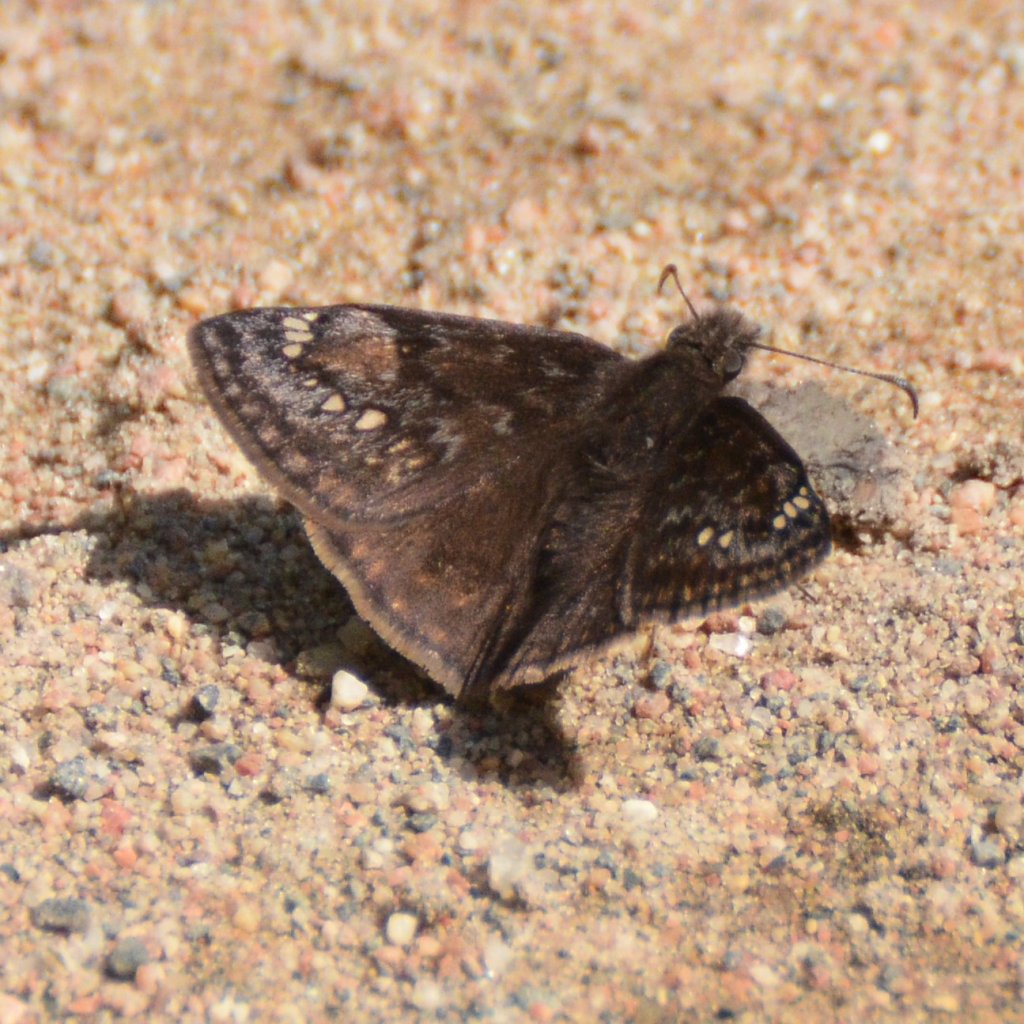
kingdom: Animalia
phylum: Arthropoda
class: Insecta
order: Lepidoptera
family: Hesperiidae
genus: Gesta
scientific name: Gesta
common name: Juvenal's Duskywing
